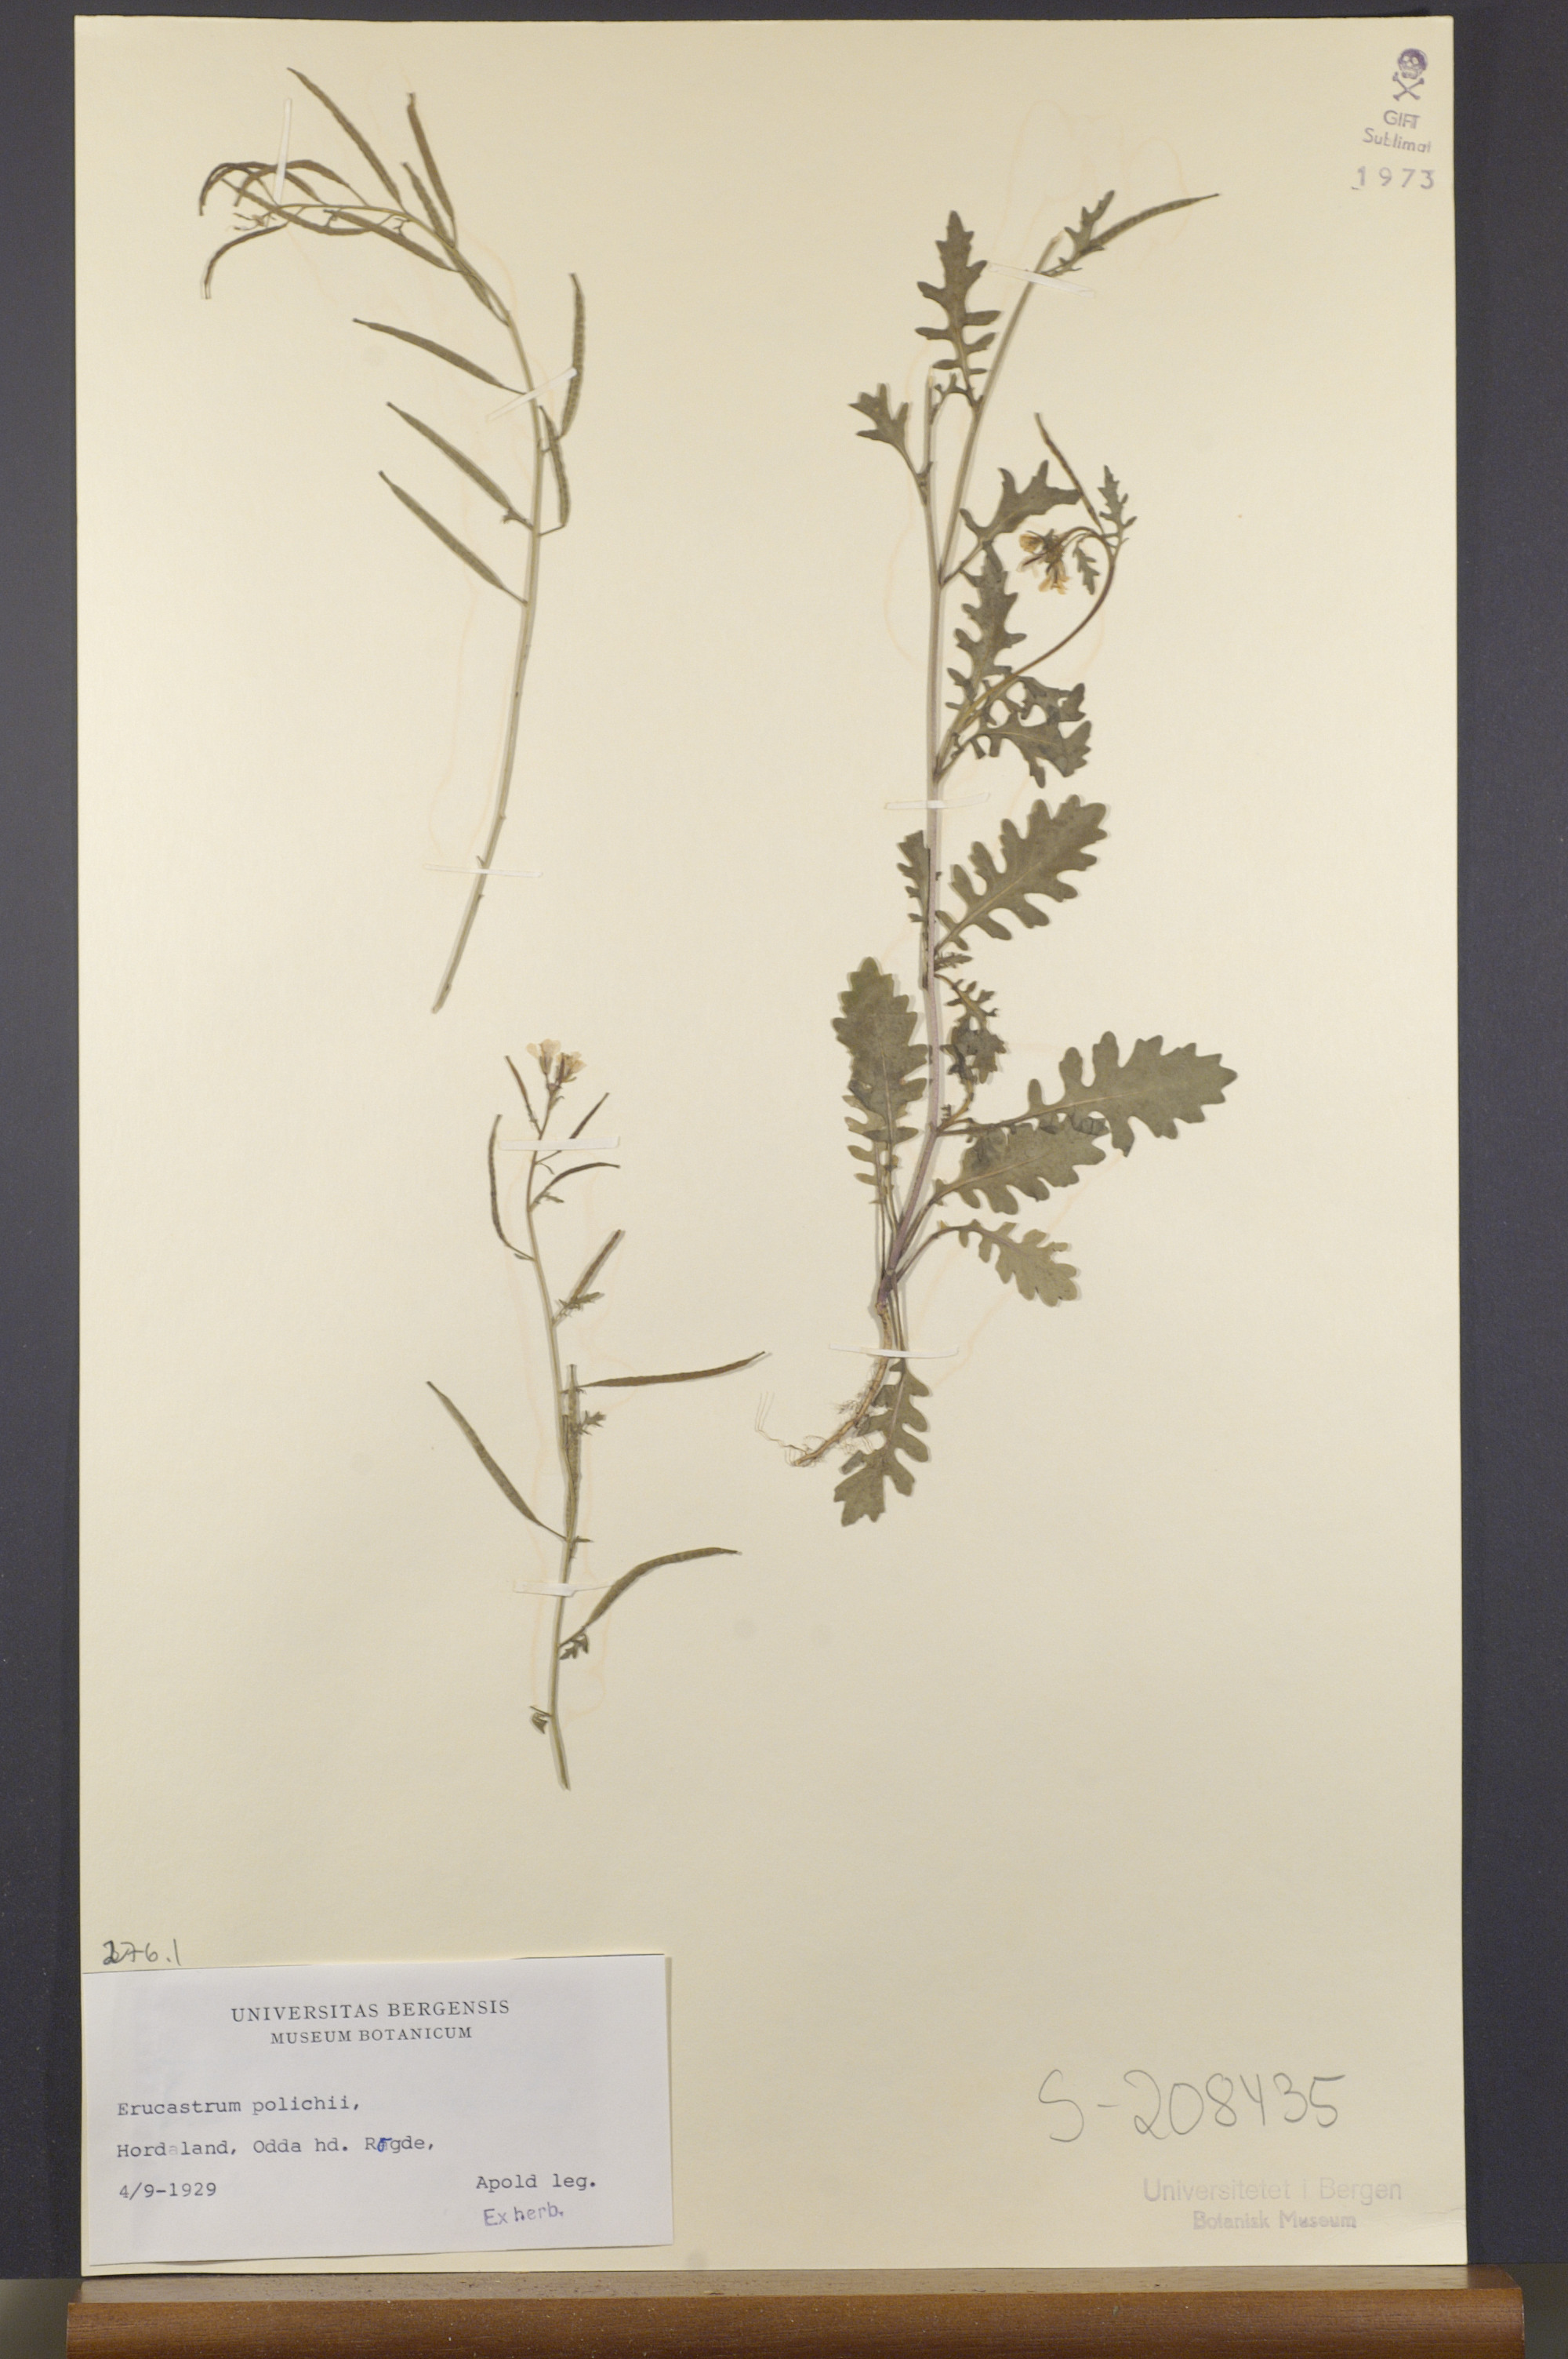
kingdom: Plantae
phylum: Tracheophyta
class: Magnoliopsida
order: Brassicales
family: Brassicaceae
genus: Erucastrum
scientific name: Erucastrum gallicum
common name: Hairy rocket
